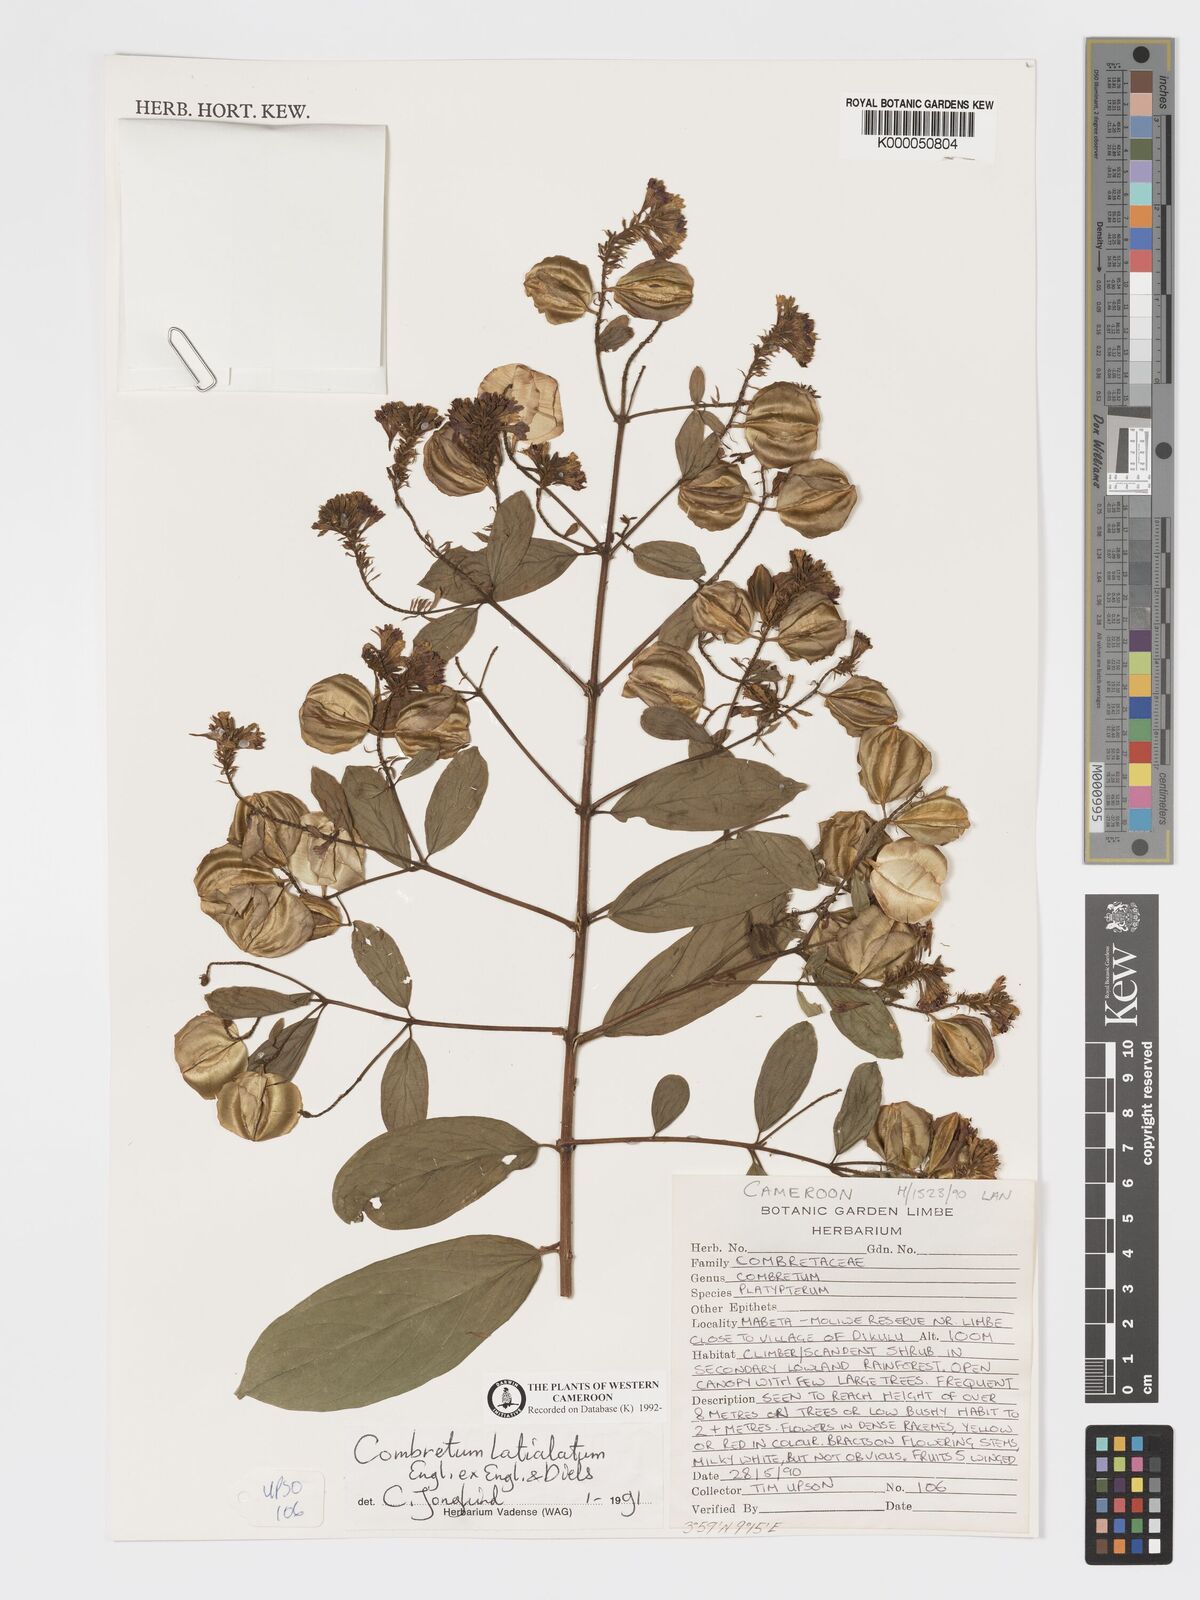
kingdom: Plantae
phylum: Tracheophyta
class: Magnoliopsida
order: Myrtales
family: Combretaceae
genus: Combretum
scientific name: Combretum latialatum
